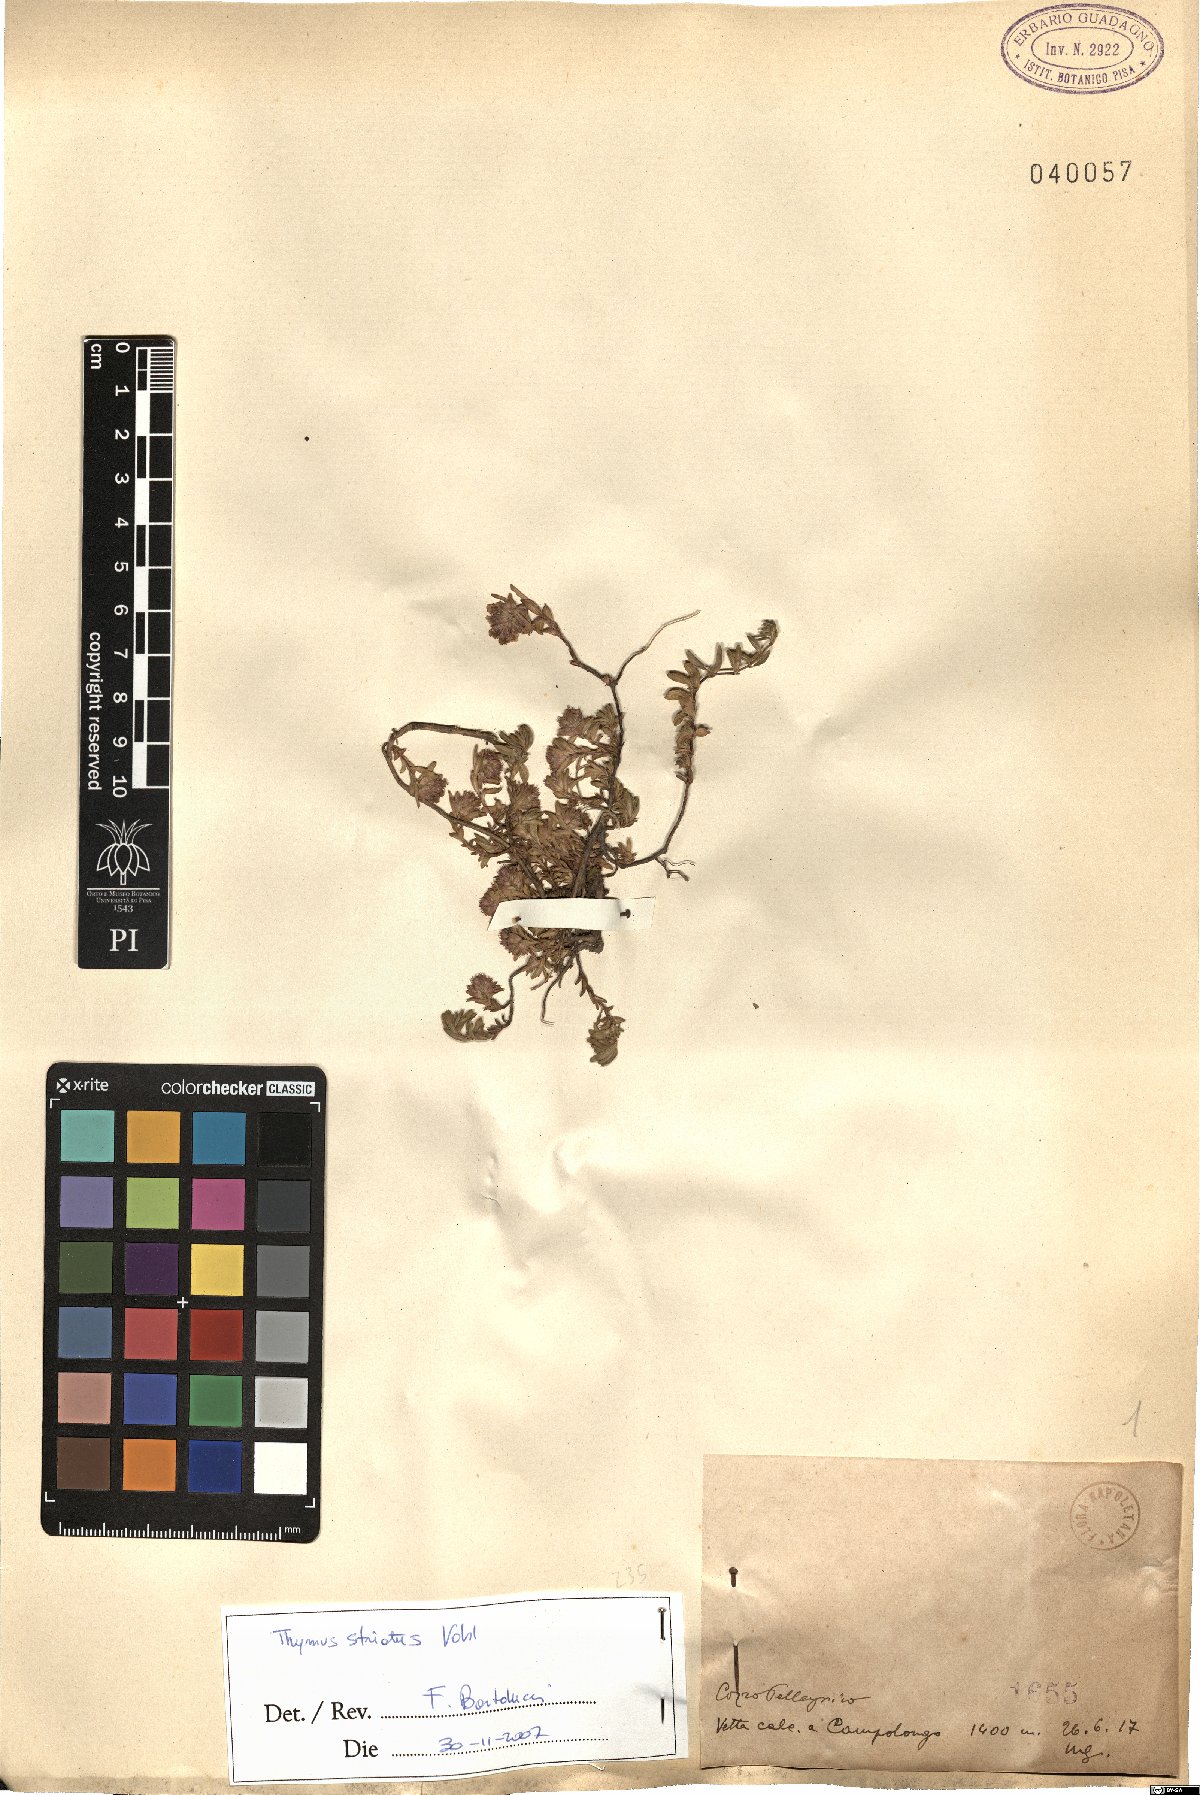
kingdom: Plantae
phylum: Tracheophyta
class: Magnoliopsida
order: Lamiales
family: Lamiaceae
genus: Thymus
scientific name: Thymus striatus
